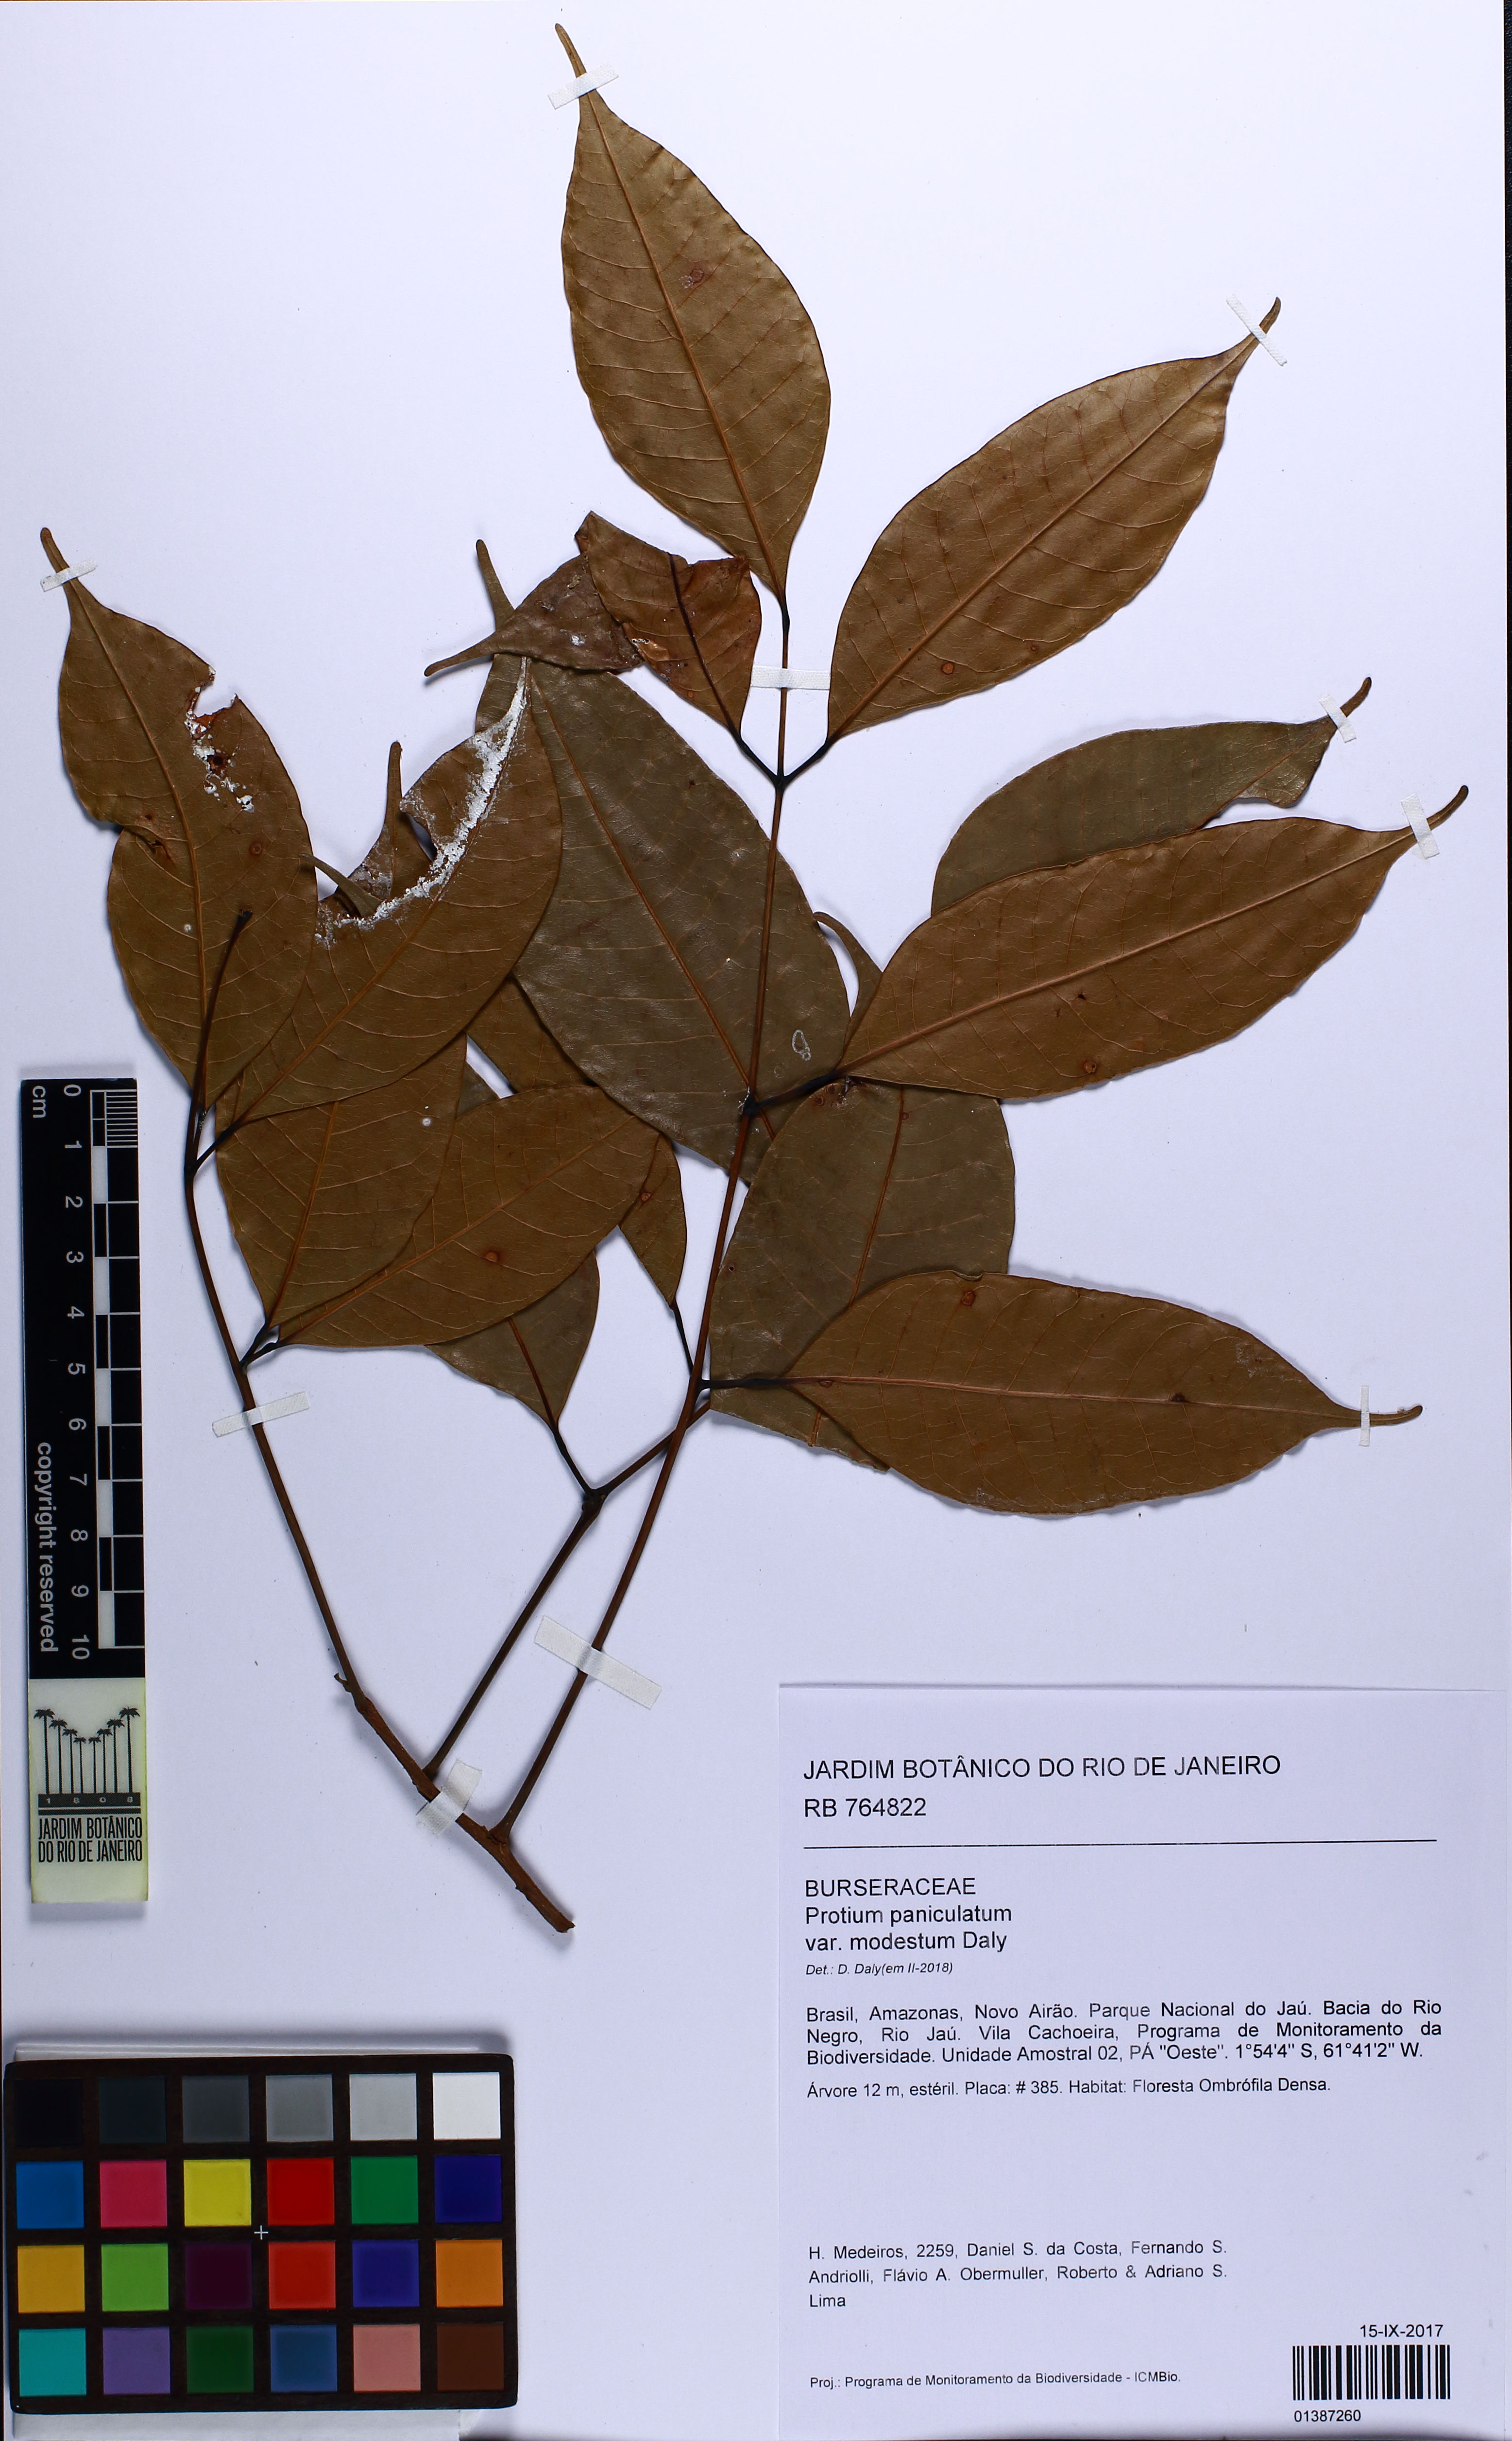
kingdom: Plantae
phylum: Tracheophyta
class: Magnoliopsida
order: Sapindales
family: Burseraceae
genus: Protium
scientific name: Protium paniculatum
